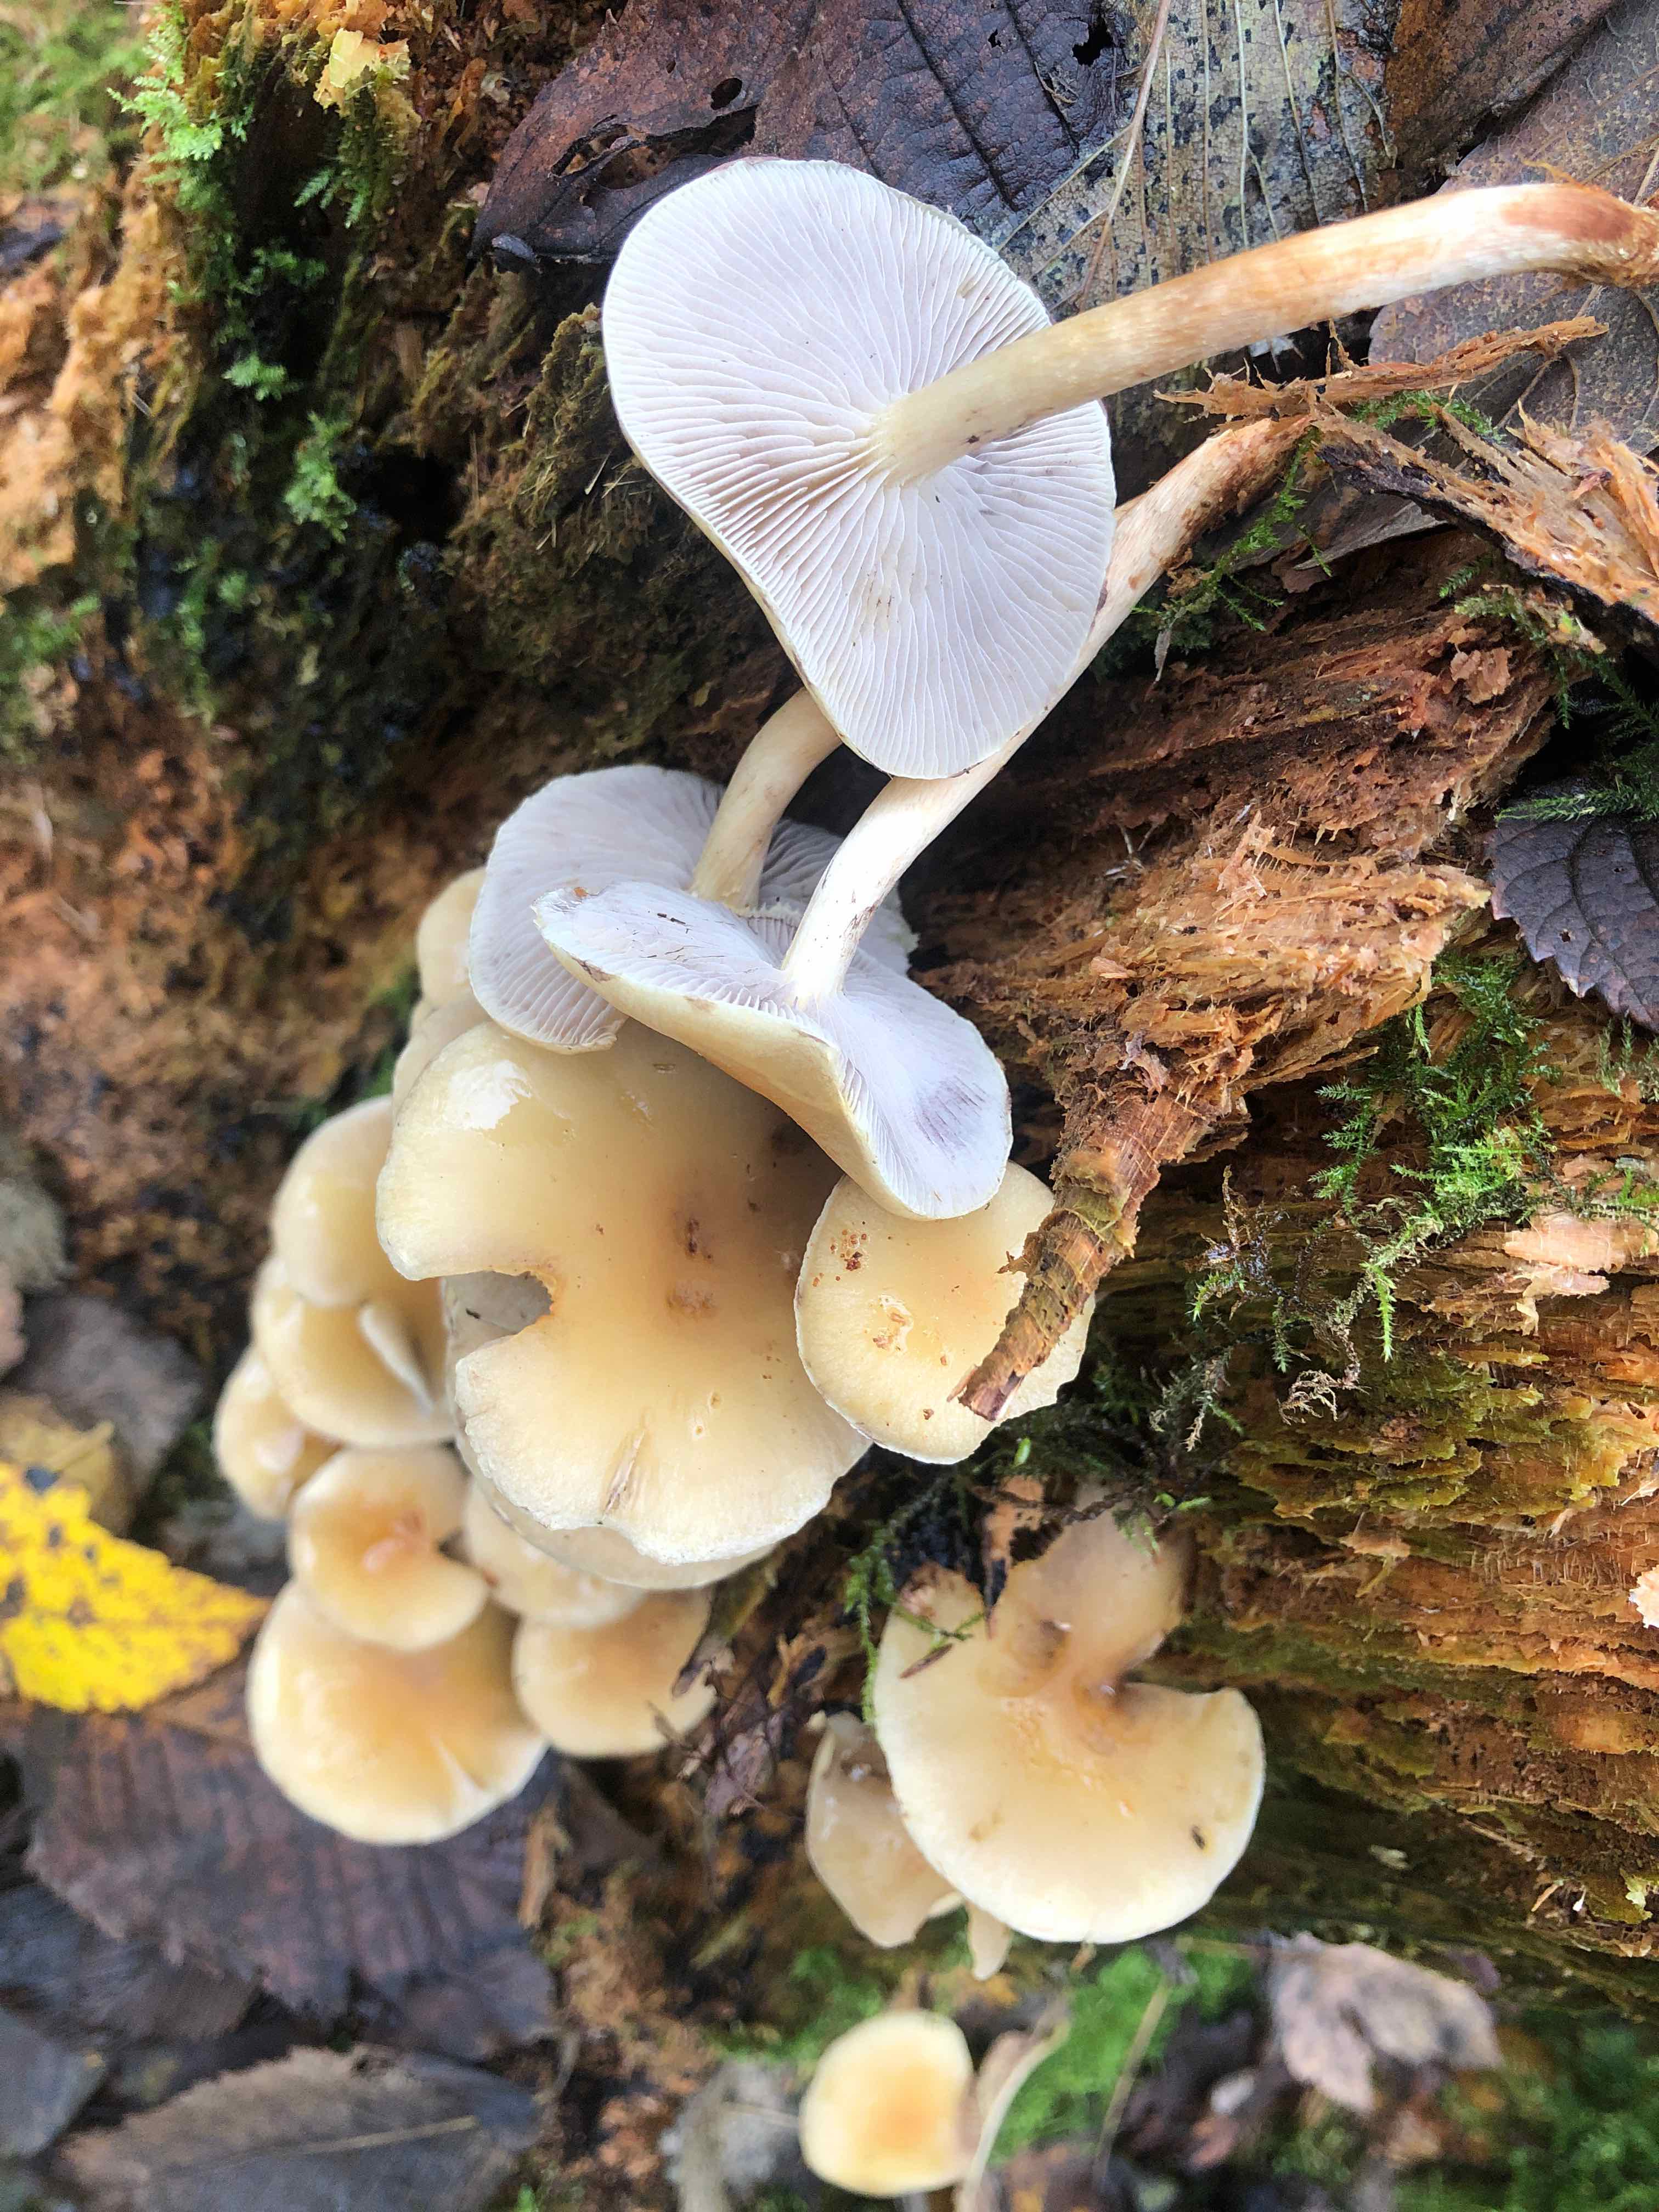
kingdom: Fungi
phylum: Basidiomycota
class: Agaricomycetes
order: Agaricales
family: Strophariaceae
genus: Hypholoma
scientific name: Hypholoma capnoides
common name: gran-svovlhat
